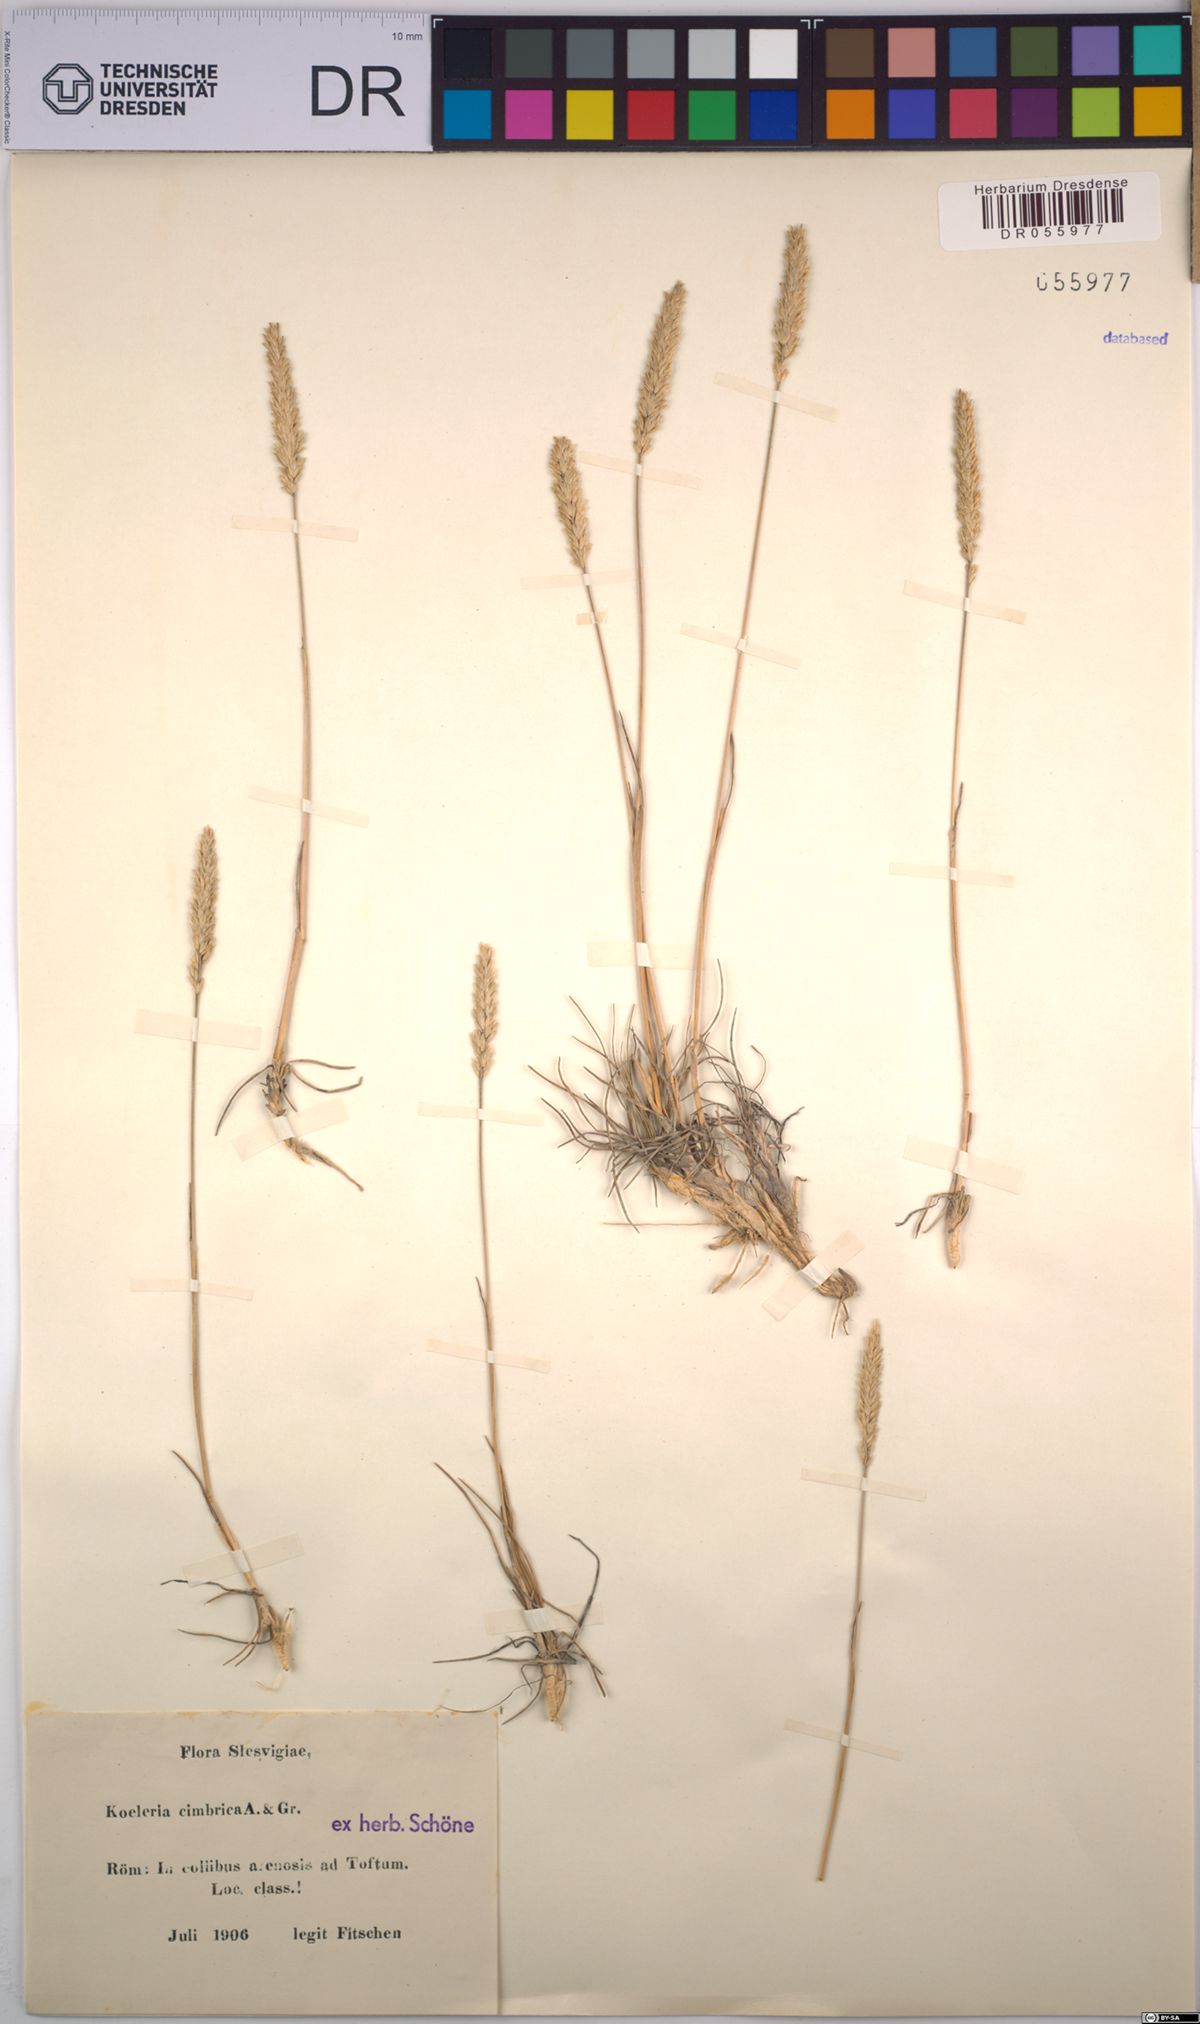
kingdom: Plantae
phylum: Tracheophyta
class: Liliopsida
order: Poales
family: Poaceae
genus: Koeleria
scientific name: Koeleria albescens
